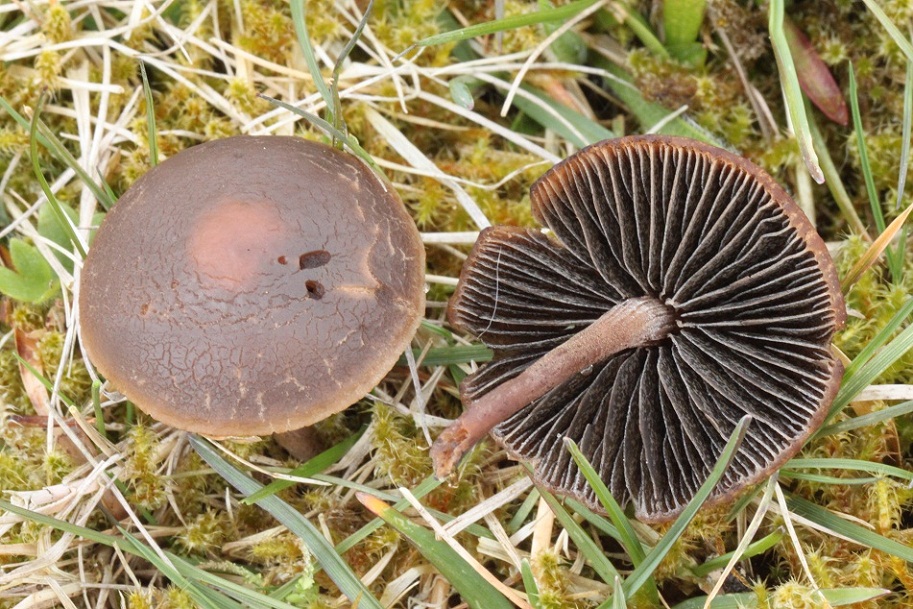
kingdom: Fungi
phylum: Basidiomycota
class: Agaricomycetes
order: Agaricales
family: Bolbitiaceae
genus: Panaeolus
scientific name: Panaeolus fimicola
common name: tidlig glanshat
